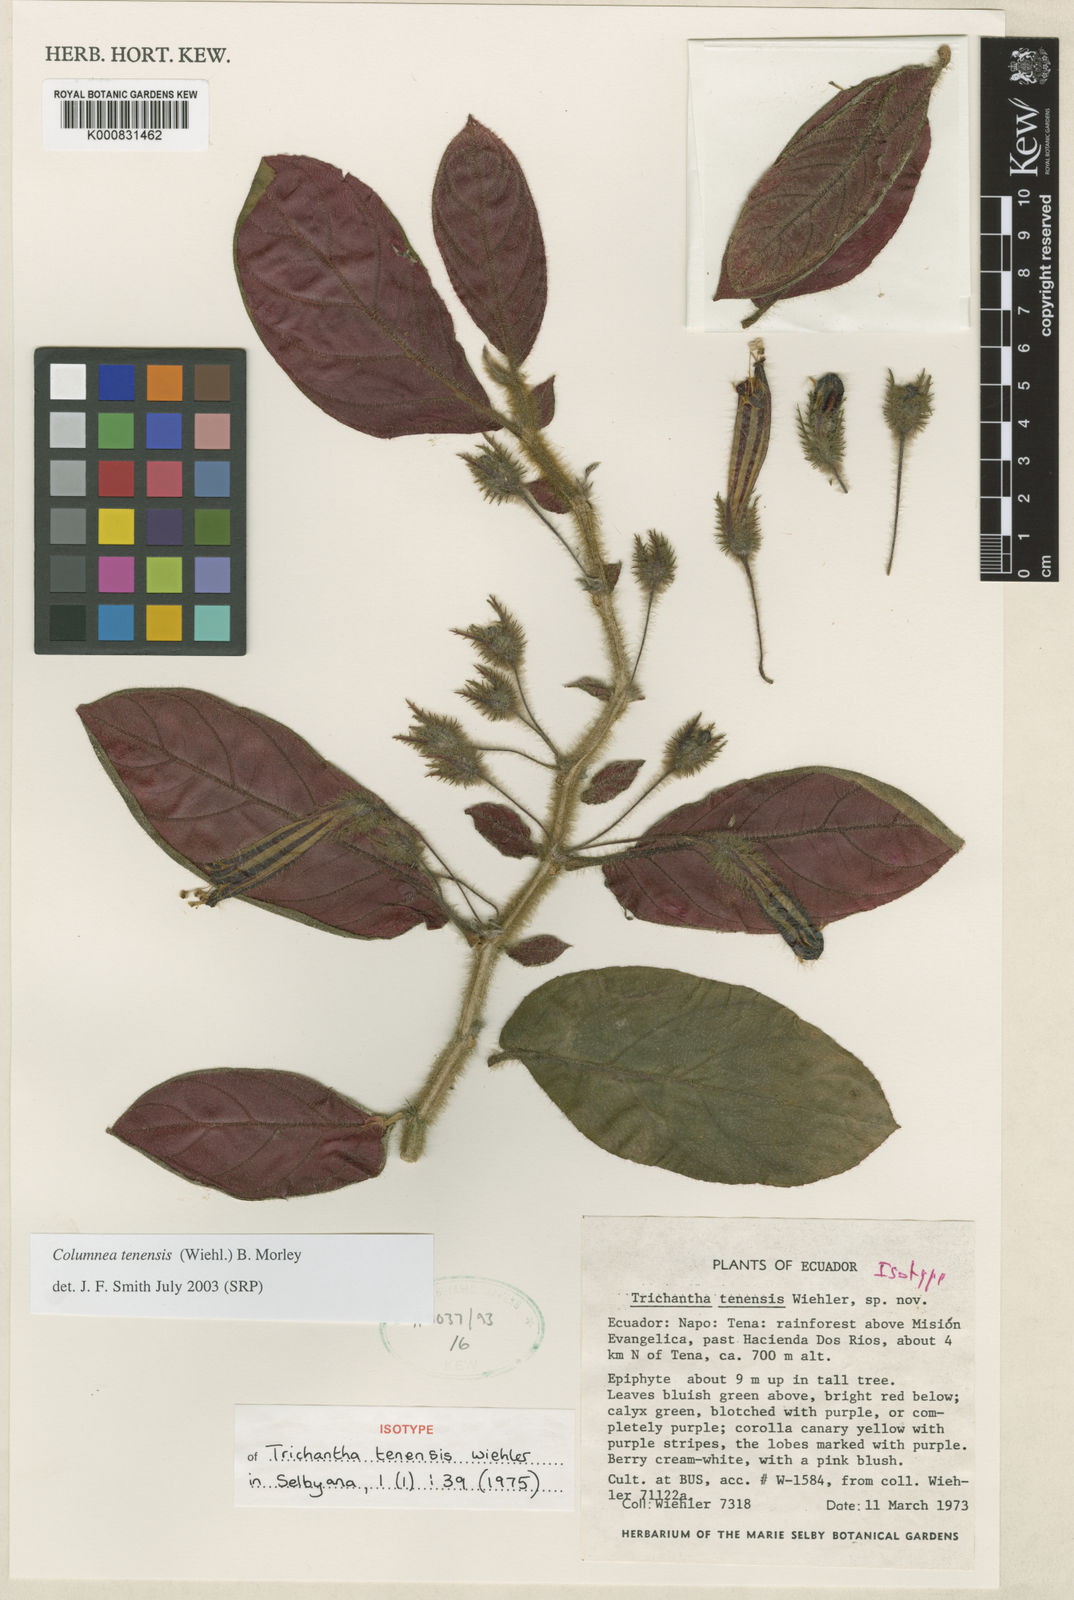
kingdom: Plantae
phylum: Tracheophyta
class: Magnoliopsida
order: Lamiales
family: Gesneriaceae
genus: Columnea
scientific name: Columnea tenensis
